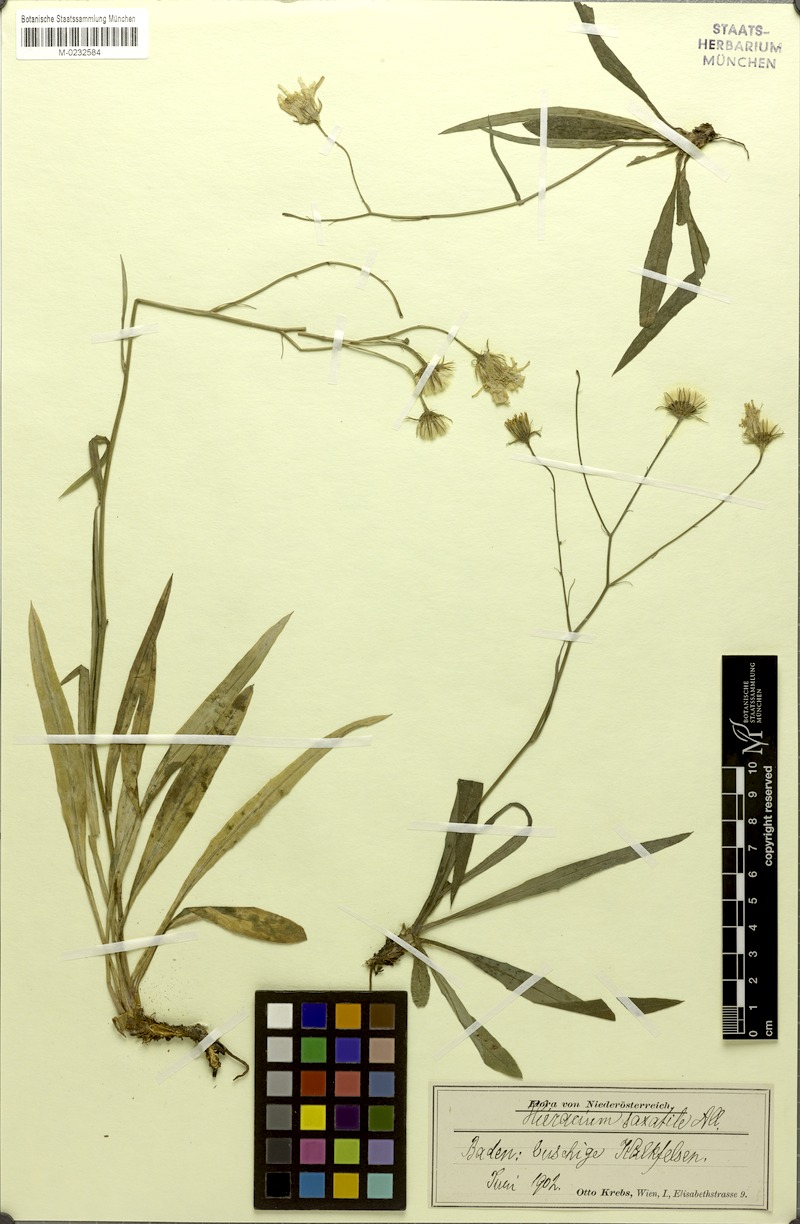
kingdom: Plantae
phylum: Tracheophyta
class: Magnoliopsida
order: Asterales
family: Asteraceae
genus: Hieracium
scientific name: Hieracium saxatile
